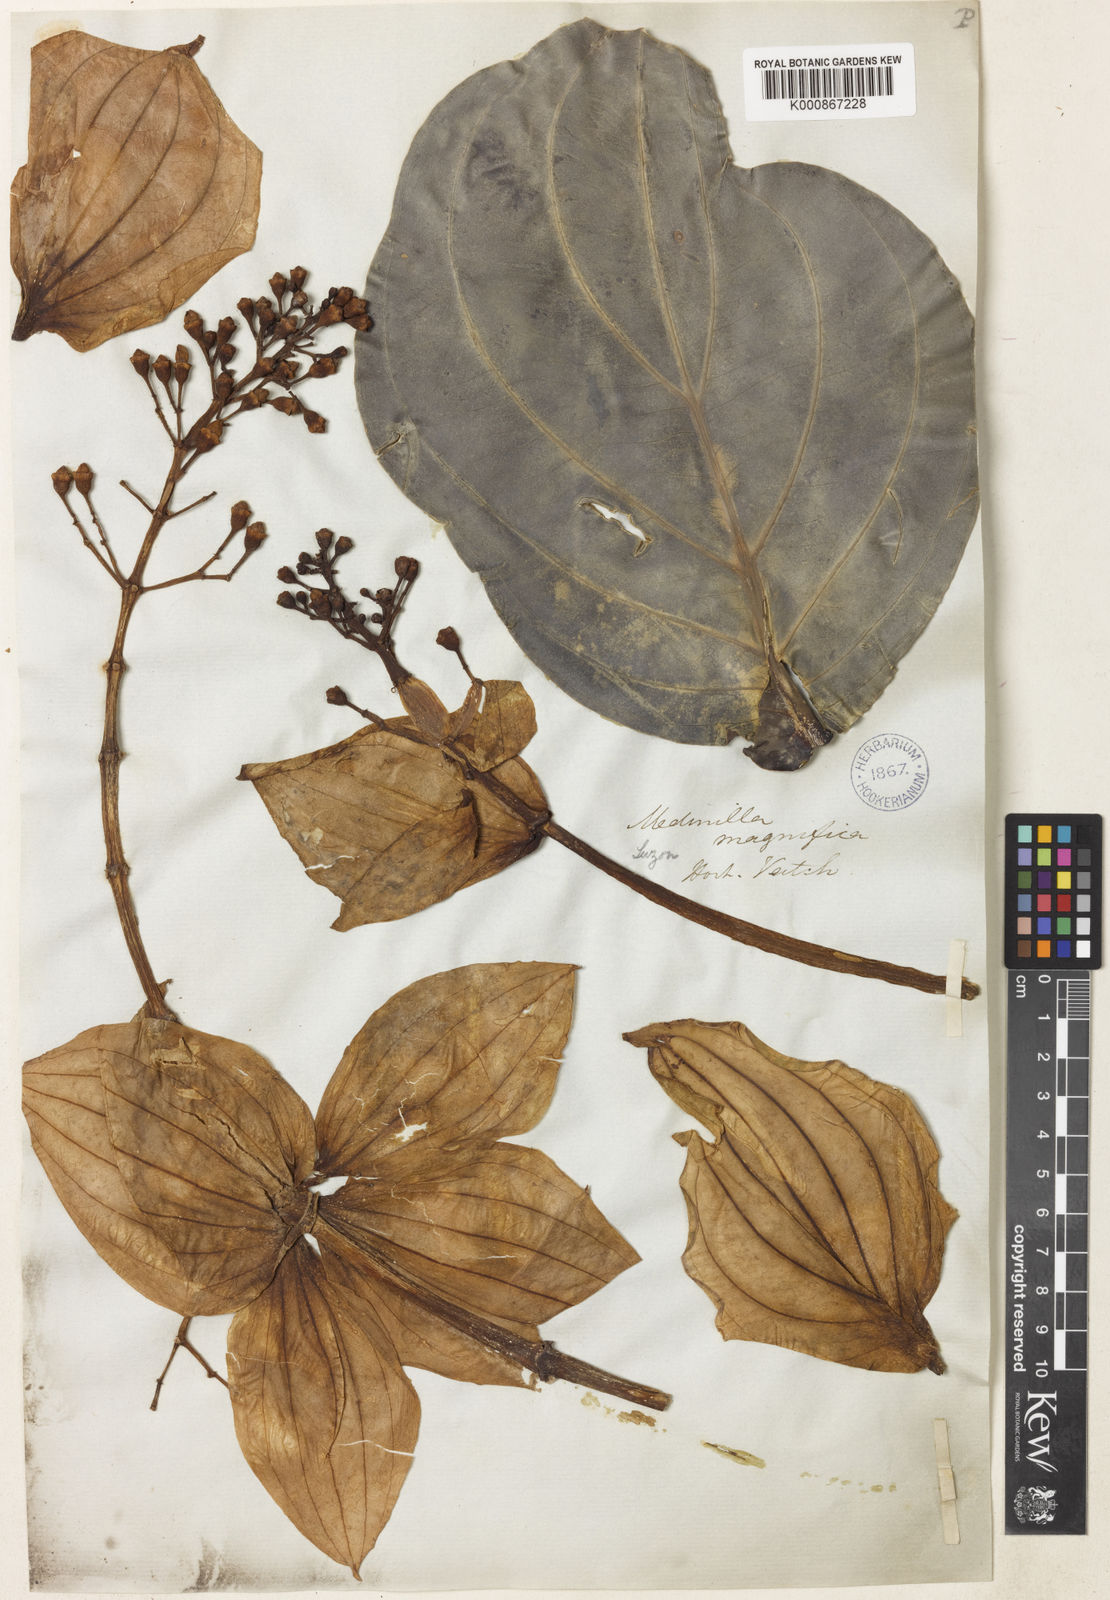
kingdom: Plantae
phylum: Tracheophyta
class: Magnoliopsida
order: Myrtales
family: Melastomataceae
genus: Medinilla
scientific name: Medinilla magnifica
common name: Showy medinilla
